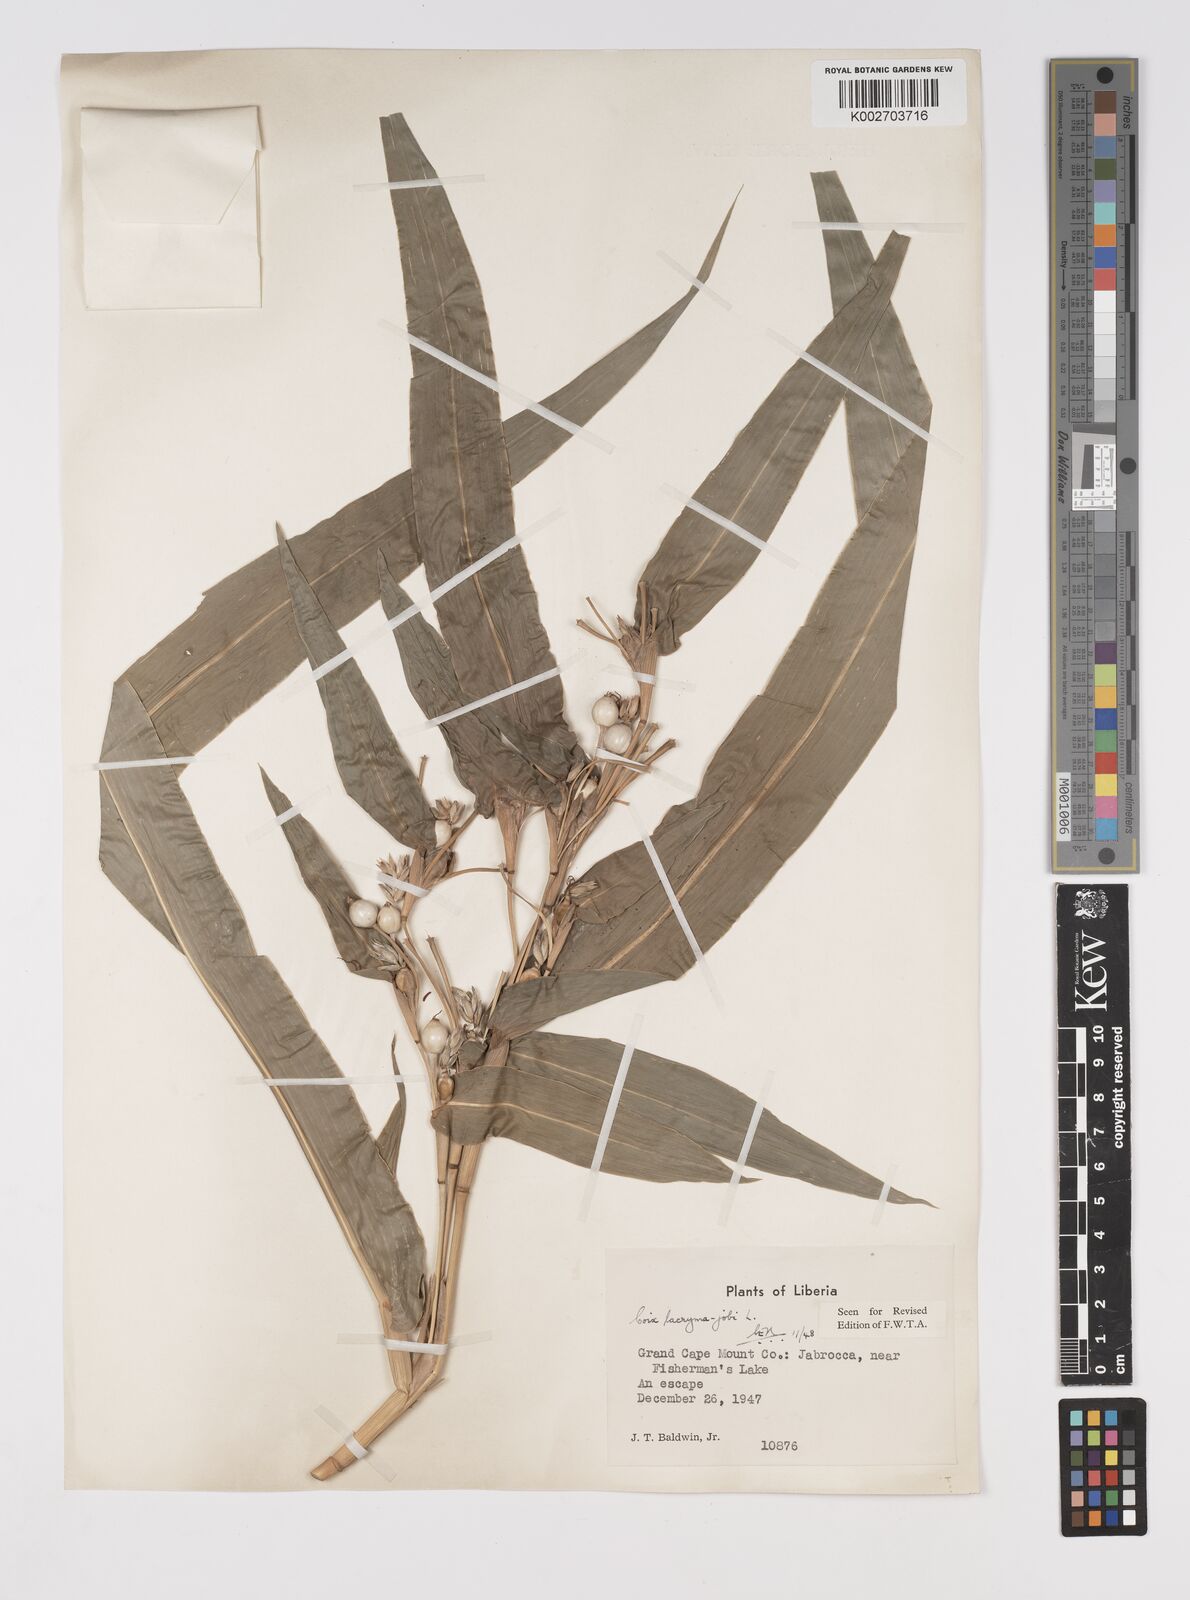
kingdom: Plantae
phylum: Tracheophyta
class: Liliopsida
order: Poales
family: Poaceae
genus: Coix
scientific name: Coix lacryma-jobi
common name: Job's tears
